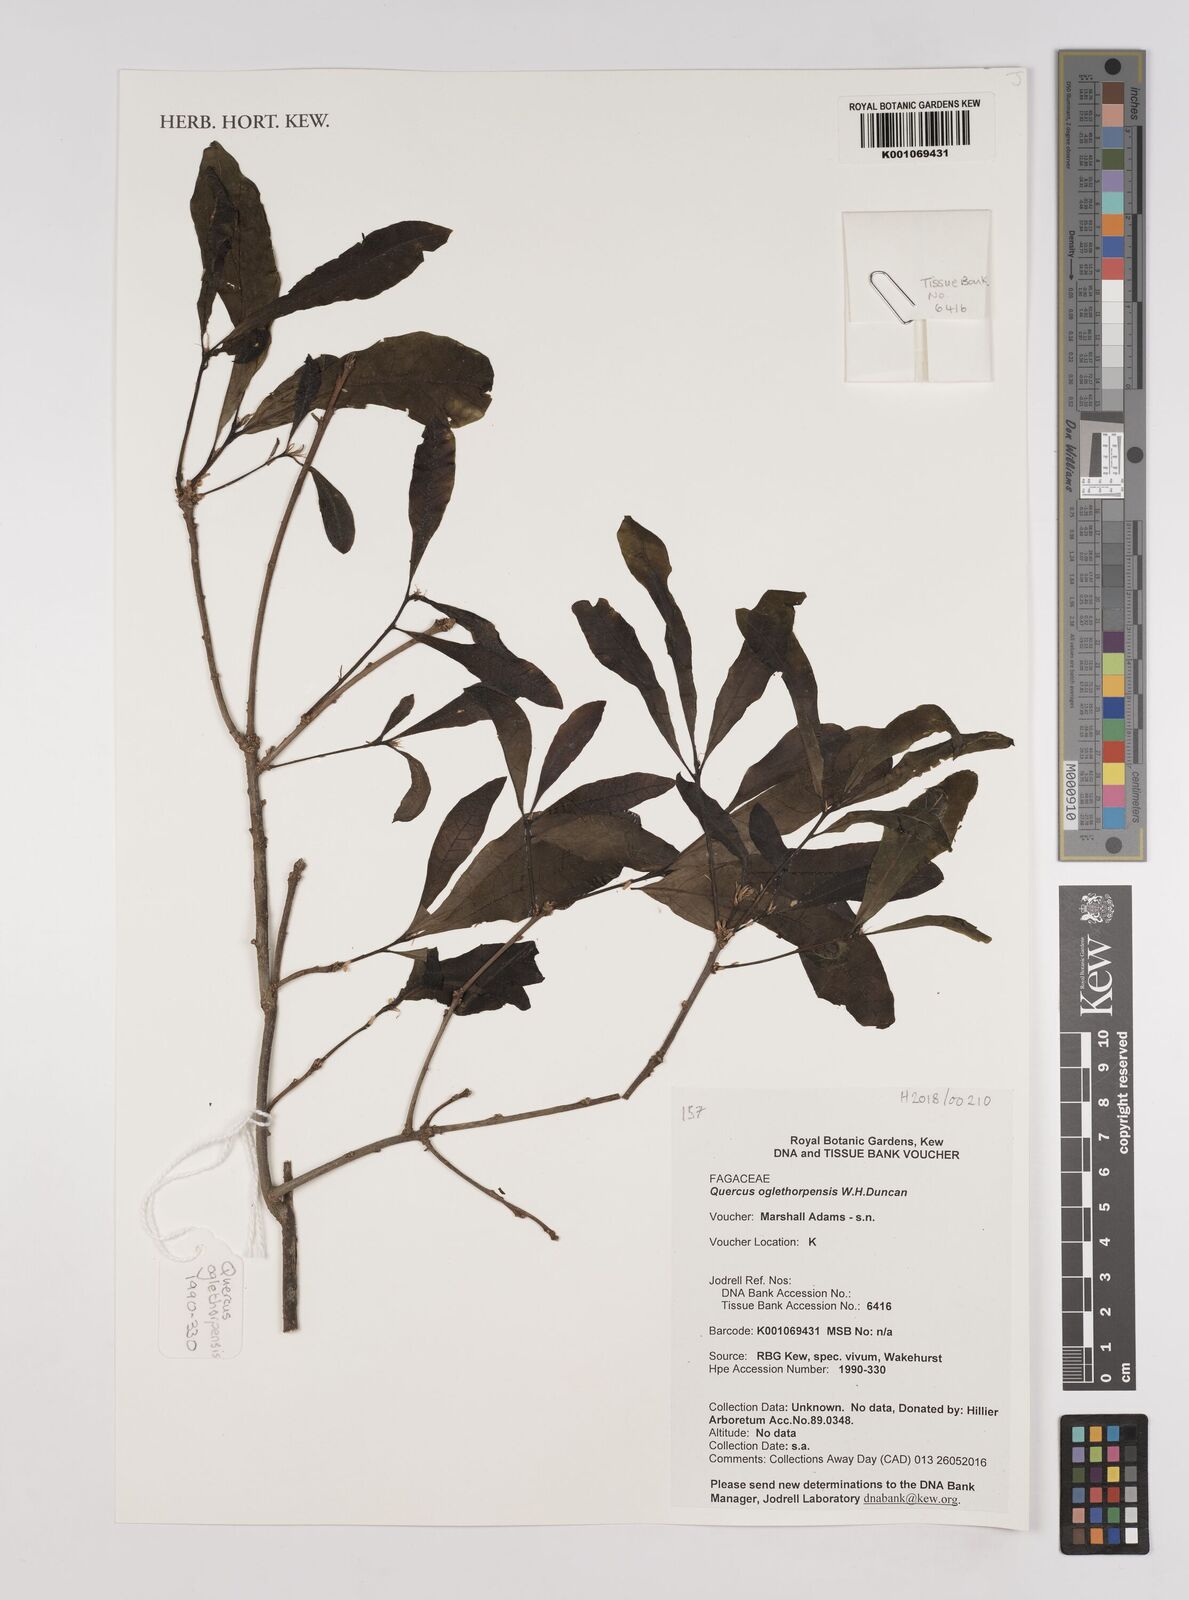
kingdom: Plantae
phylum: Tracheophyta
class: Magnoliopsida
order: Fagales
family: Fagaceae
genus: Quercus
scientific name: Quercus oglethorpensis
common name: Oglethorpe oak
